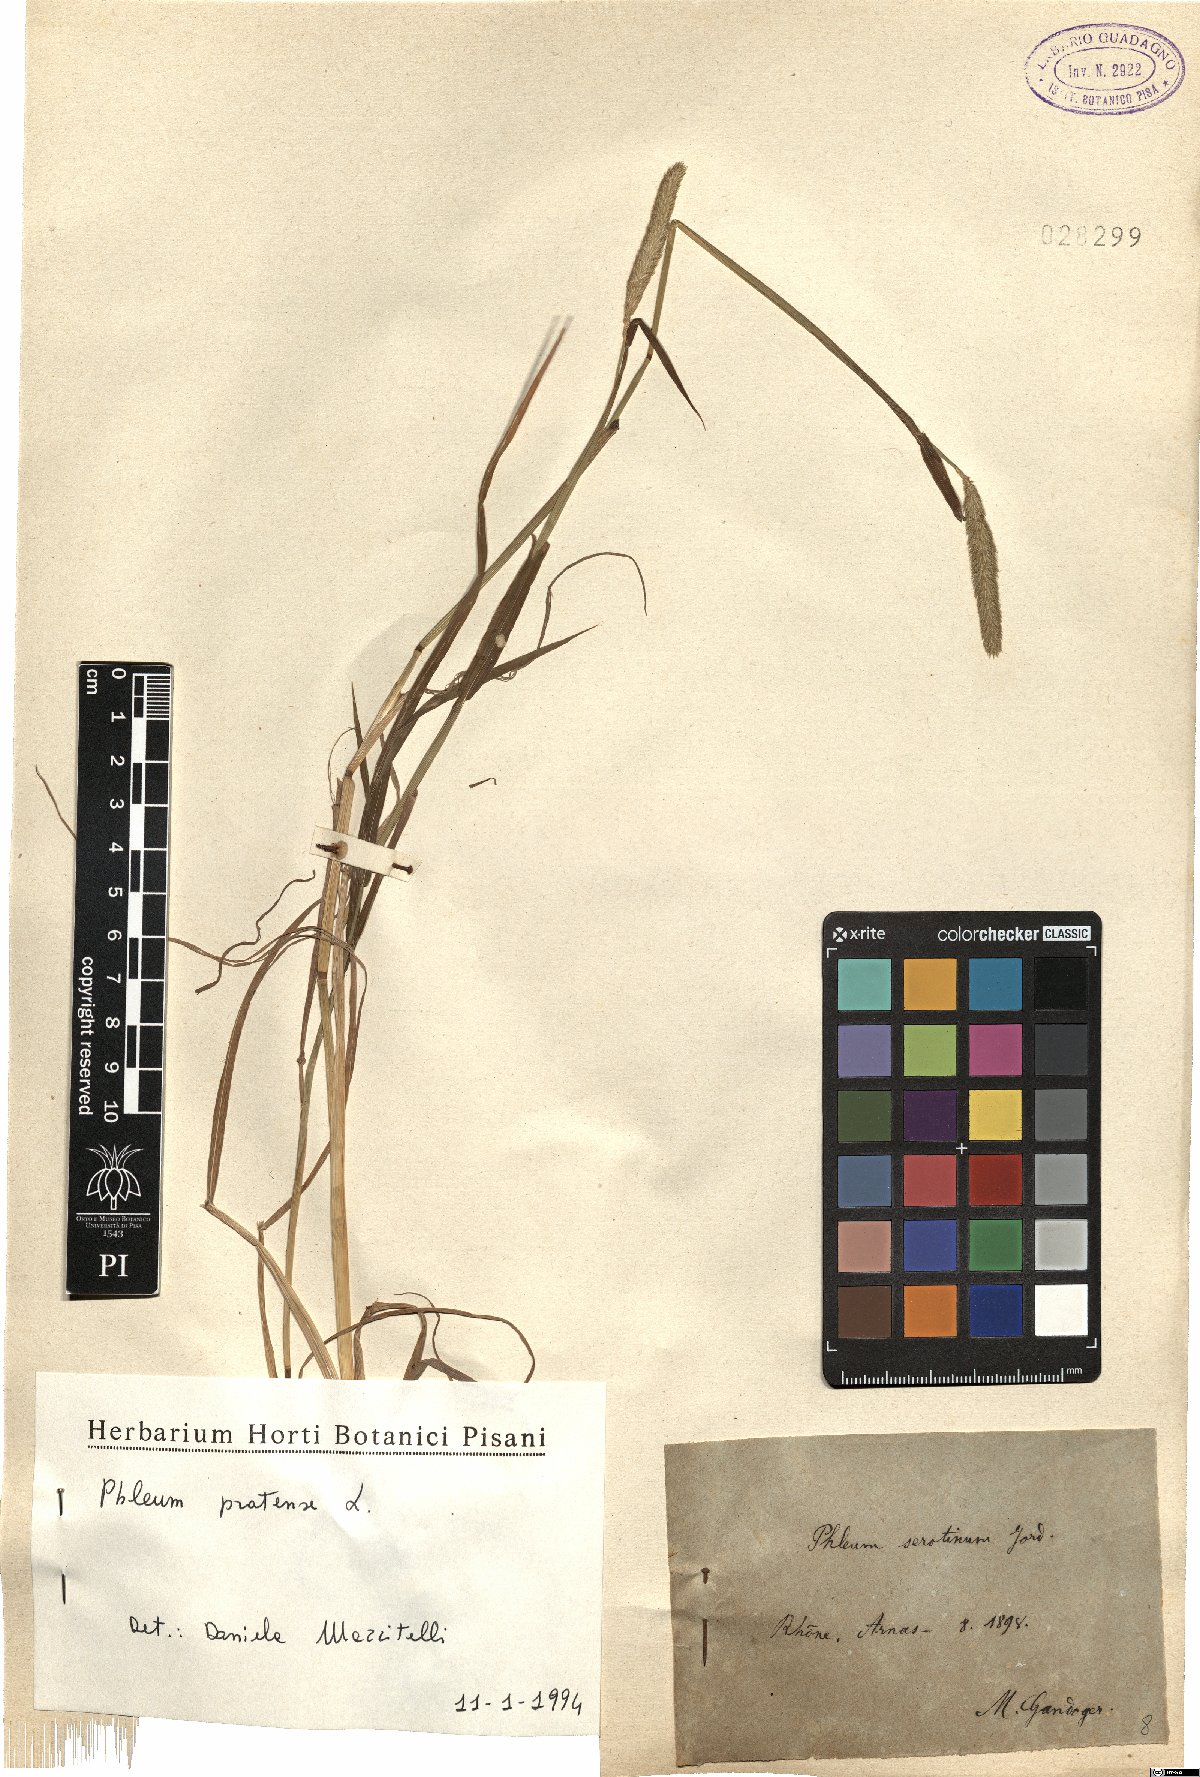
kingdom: Plantae
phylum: Tracheophyta
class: Liliopsida
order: Poales
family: Poaceae
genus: Phleum
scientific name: Phleum pratense
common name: Timothy grass
